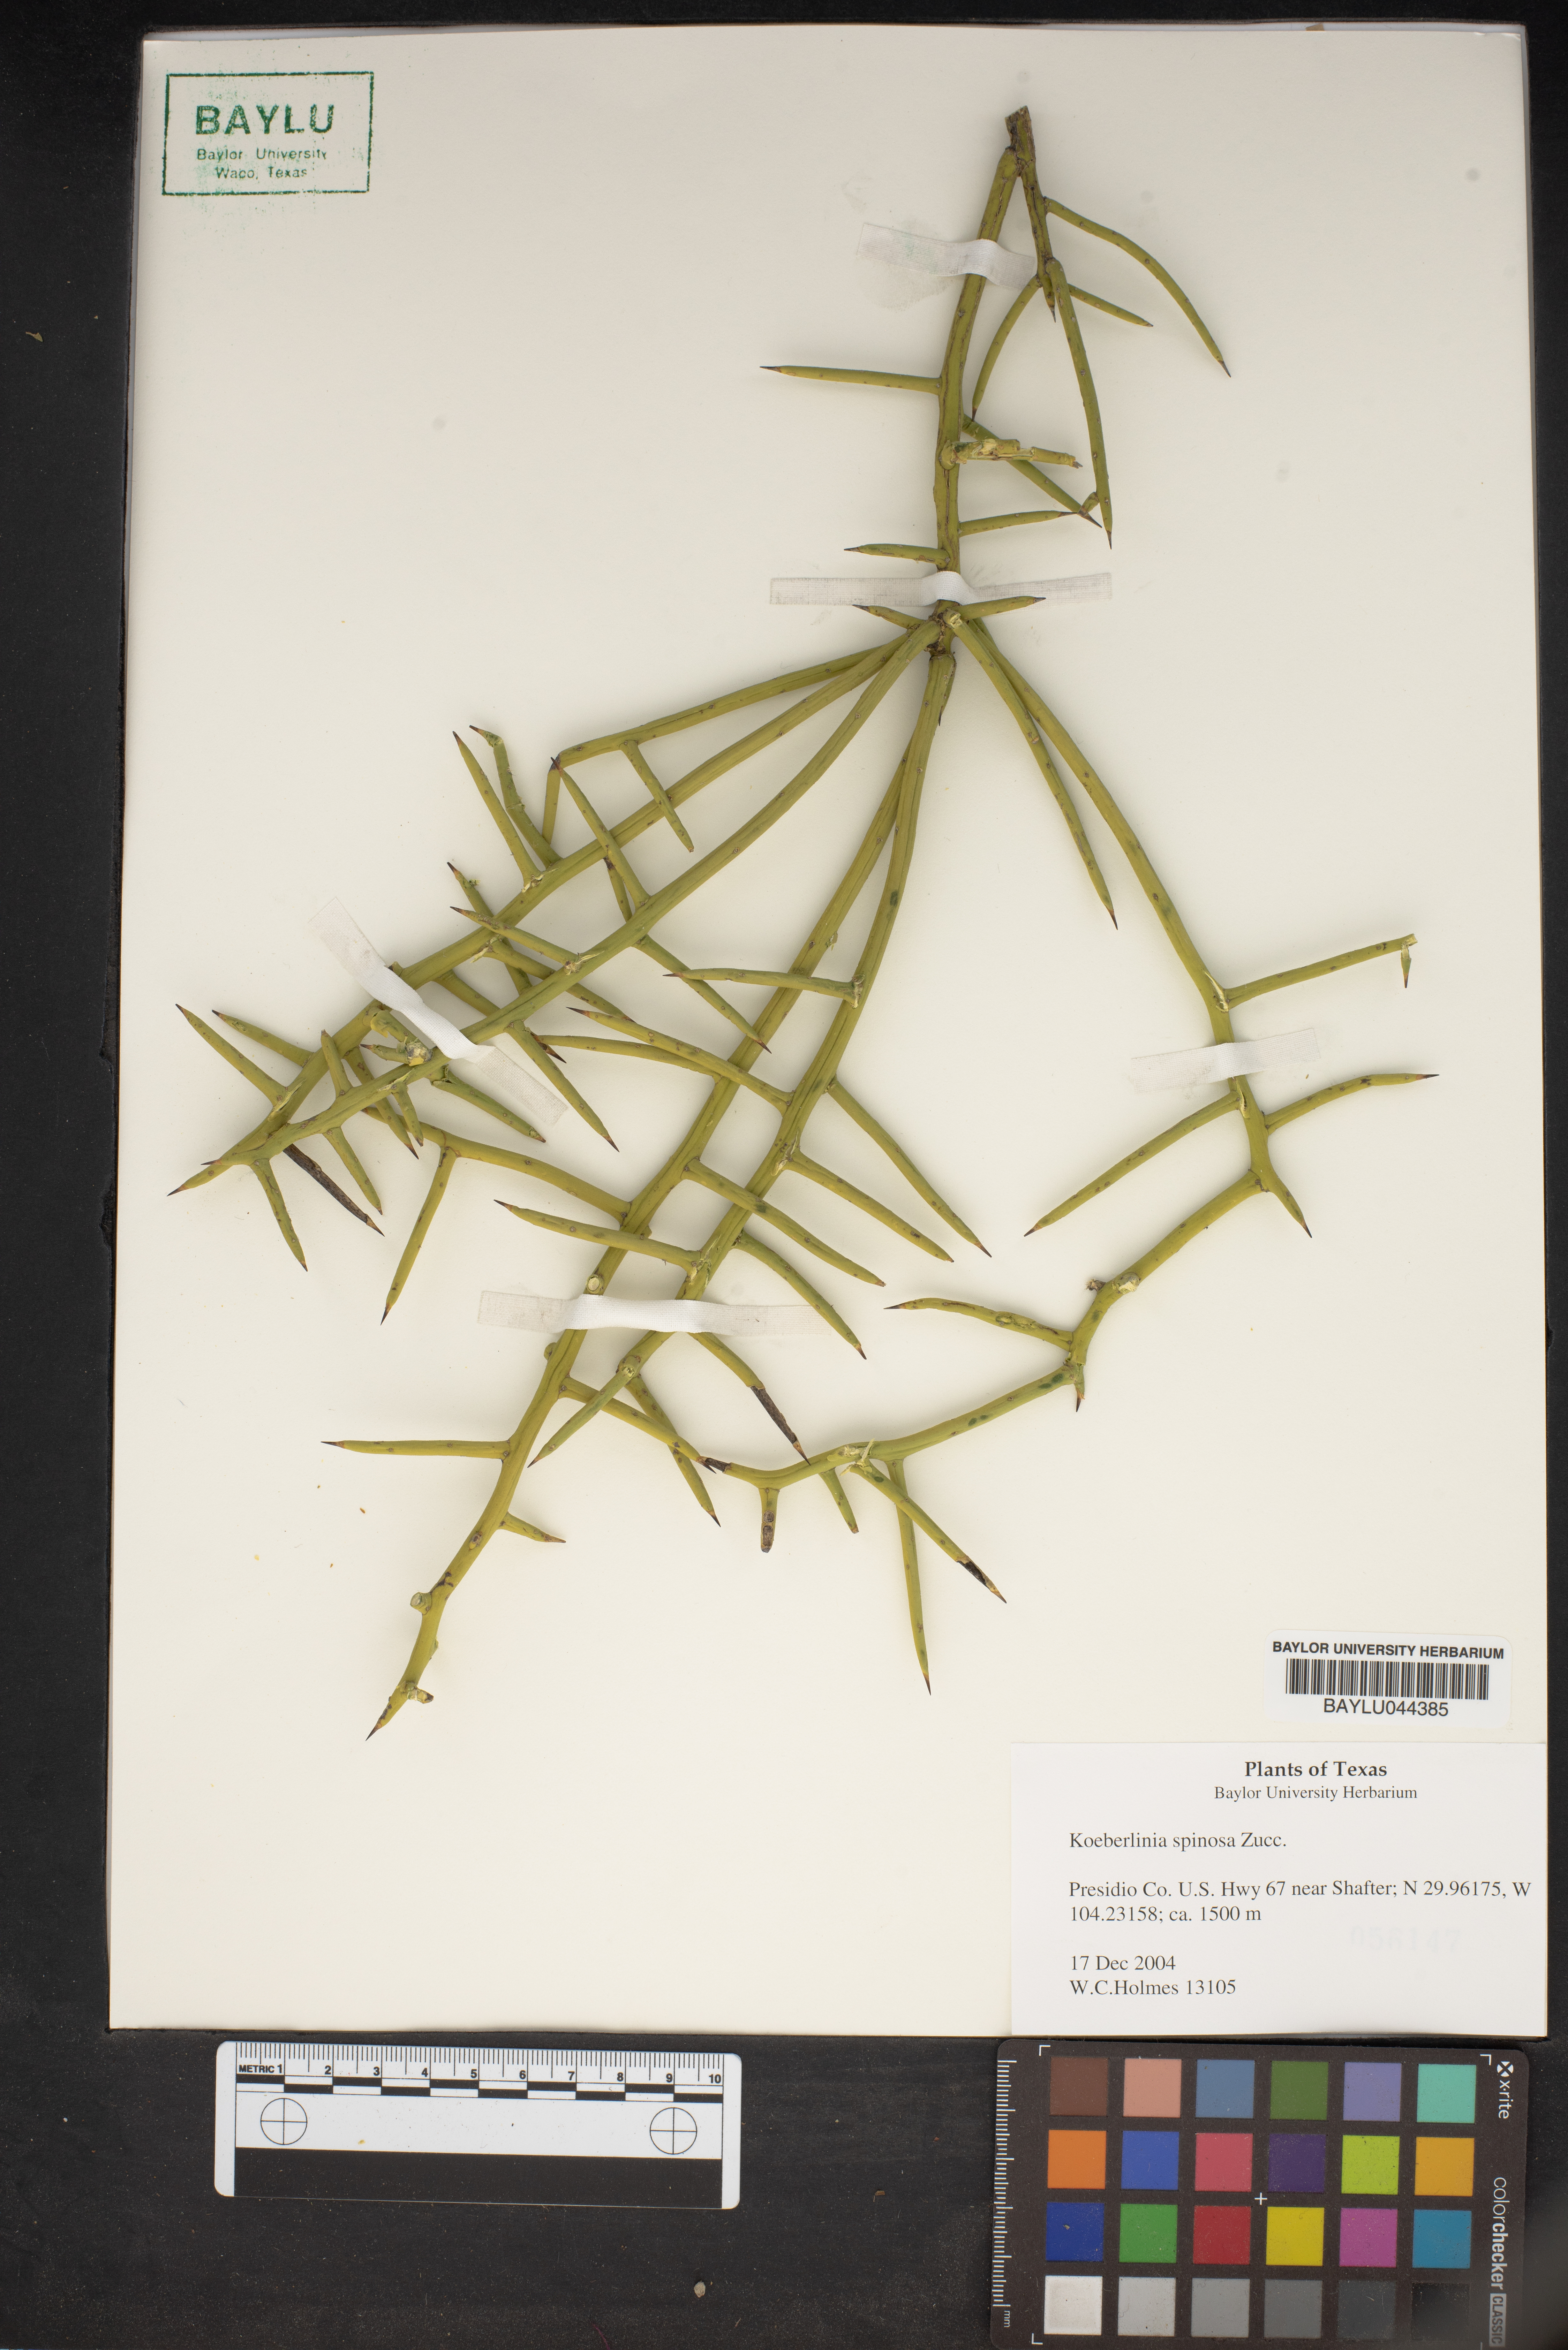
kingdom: Plantae
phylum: Tracheophyta
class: Magnoliopsida
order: Brassicales
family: Koeberliniaceae
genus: Koeberlinia
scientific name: Koeberlinia spinosa
